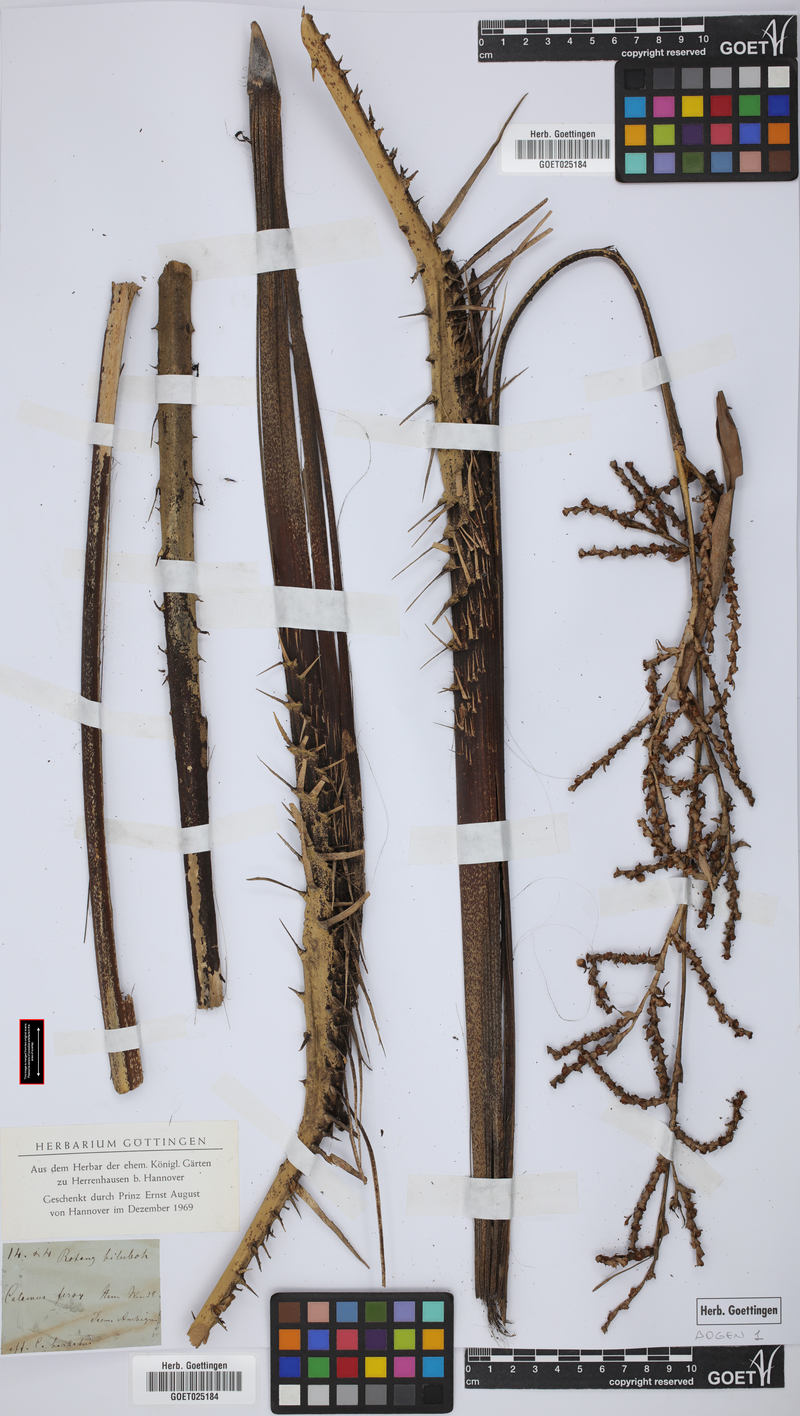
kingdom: Plantae
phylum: Tracheophyta
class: Liliopsida
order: Arecales
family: Arecaceae
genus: Calamus
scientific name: Calamus
